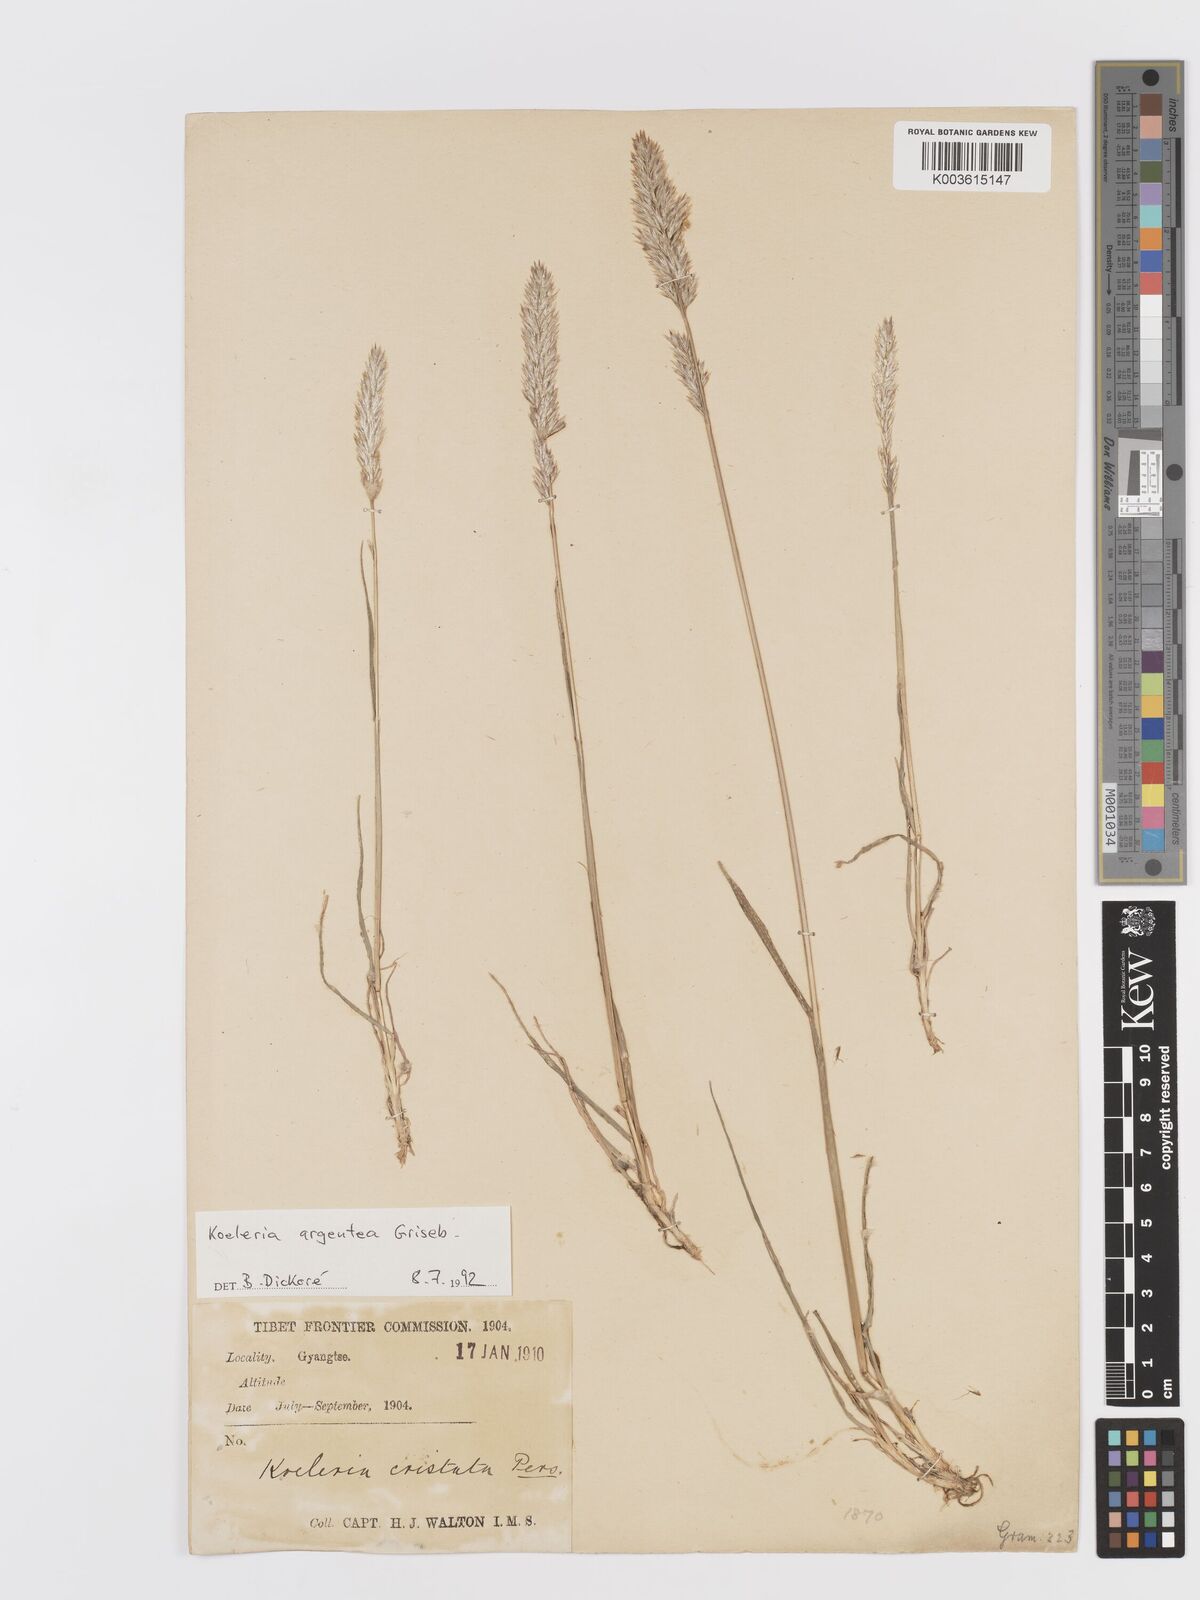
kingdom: Plantae
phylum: Tracheophyta
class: Liliopsida
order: Poales
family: Poaceae
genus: Koeleria
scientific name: Koeleria argentea
